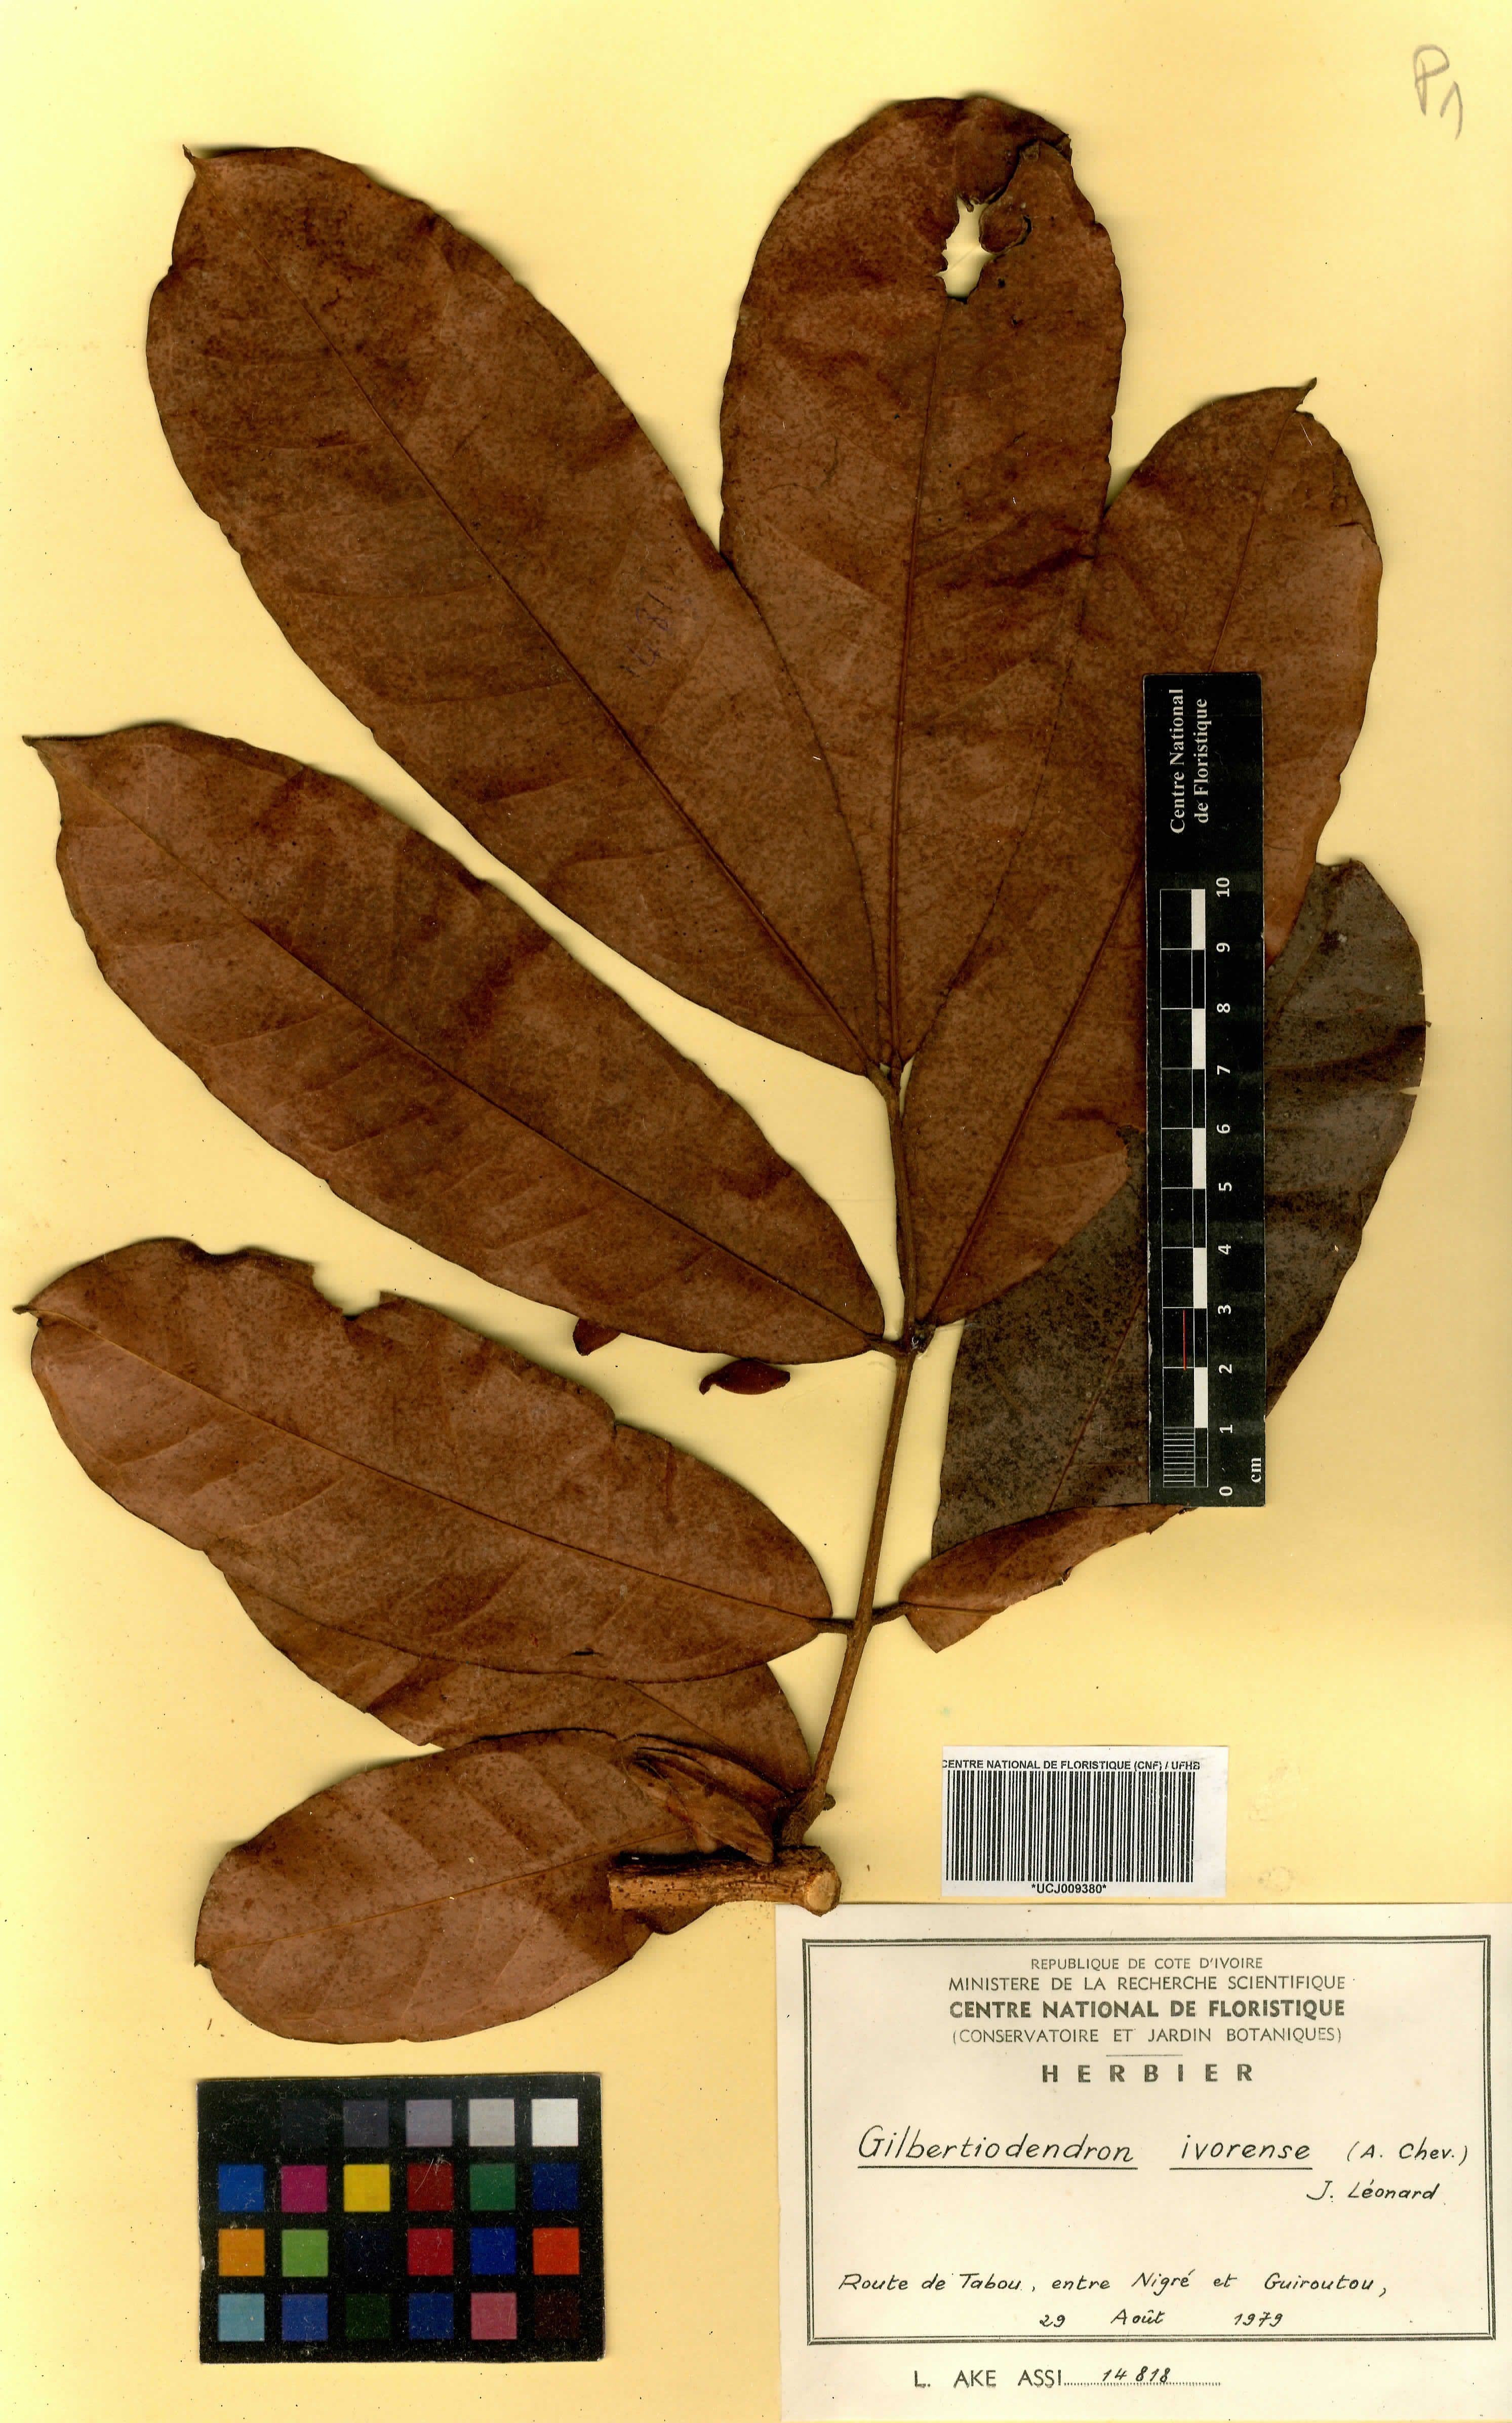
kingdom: Plantae
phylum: Tracheophyta
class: Magnoliopsida
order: Fabales
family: Fabaceae
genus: Gilbertiodendron
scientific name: Gilbertiodendron ivorense
